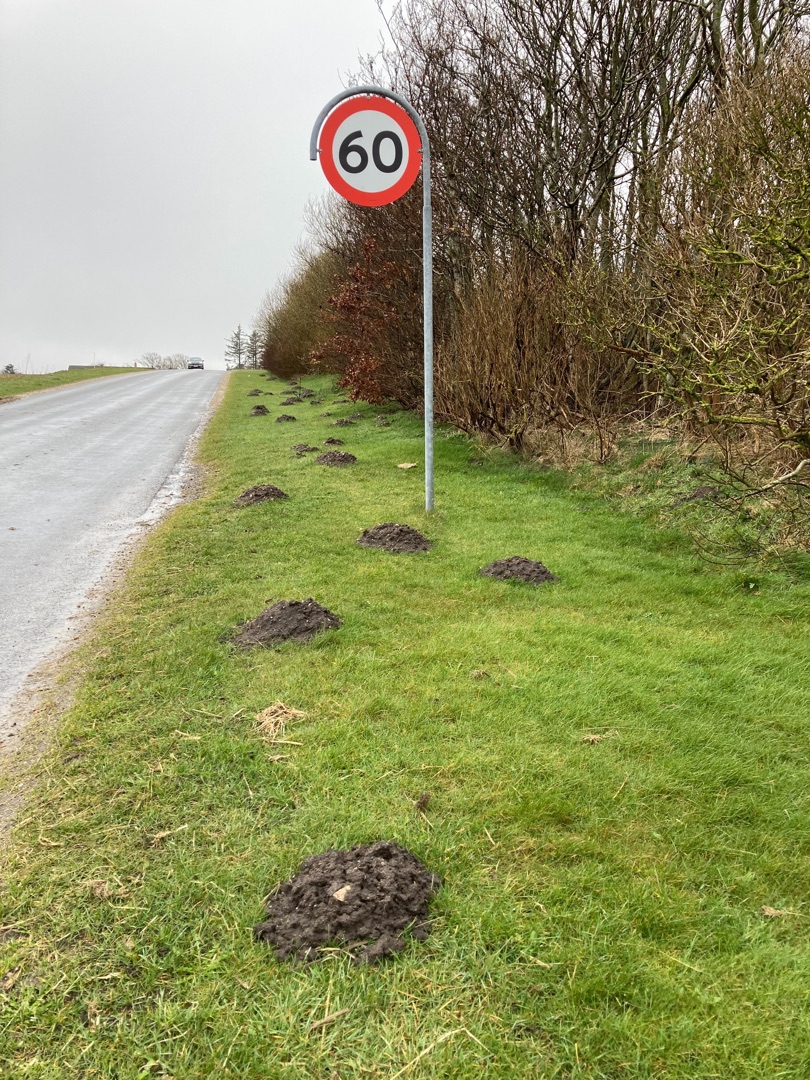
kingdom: Animalia
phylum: Chordata
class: Mammalia
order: Soricomorpha
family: Talpidae
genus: Talpa
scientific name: Talpa europaea
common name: Muldvarp
